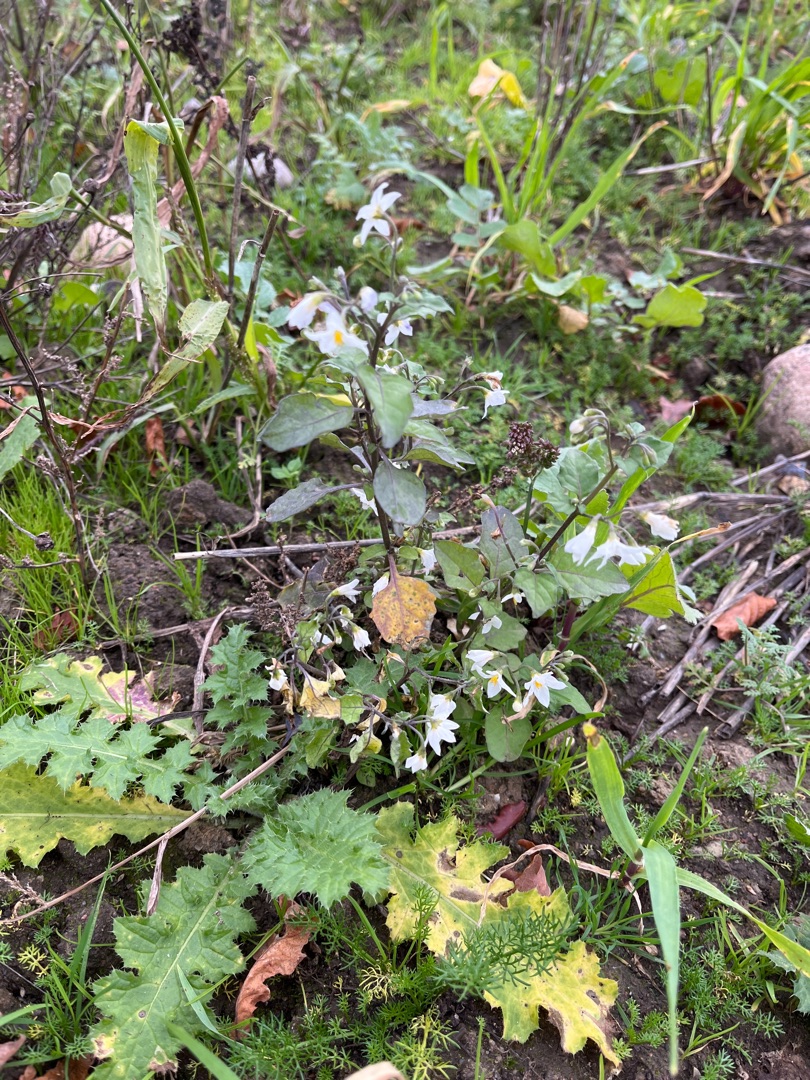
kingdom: Plantae
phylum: Tracheophyta
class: Magnoliopsida
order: Solanales
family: Solanaceae
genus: Solanum
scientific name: Solanum nigrum
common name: Sort natskygge
